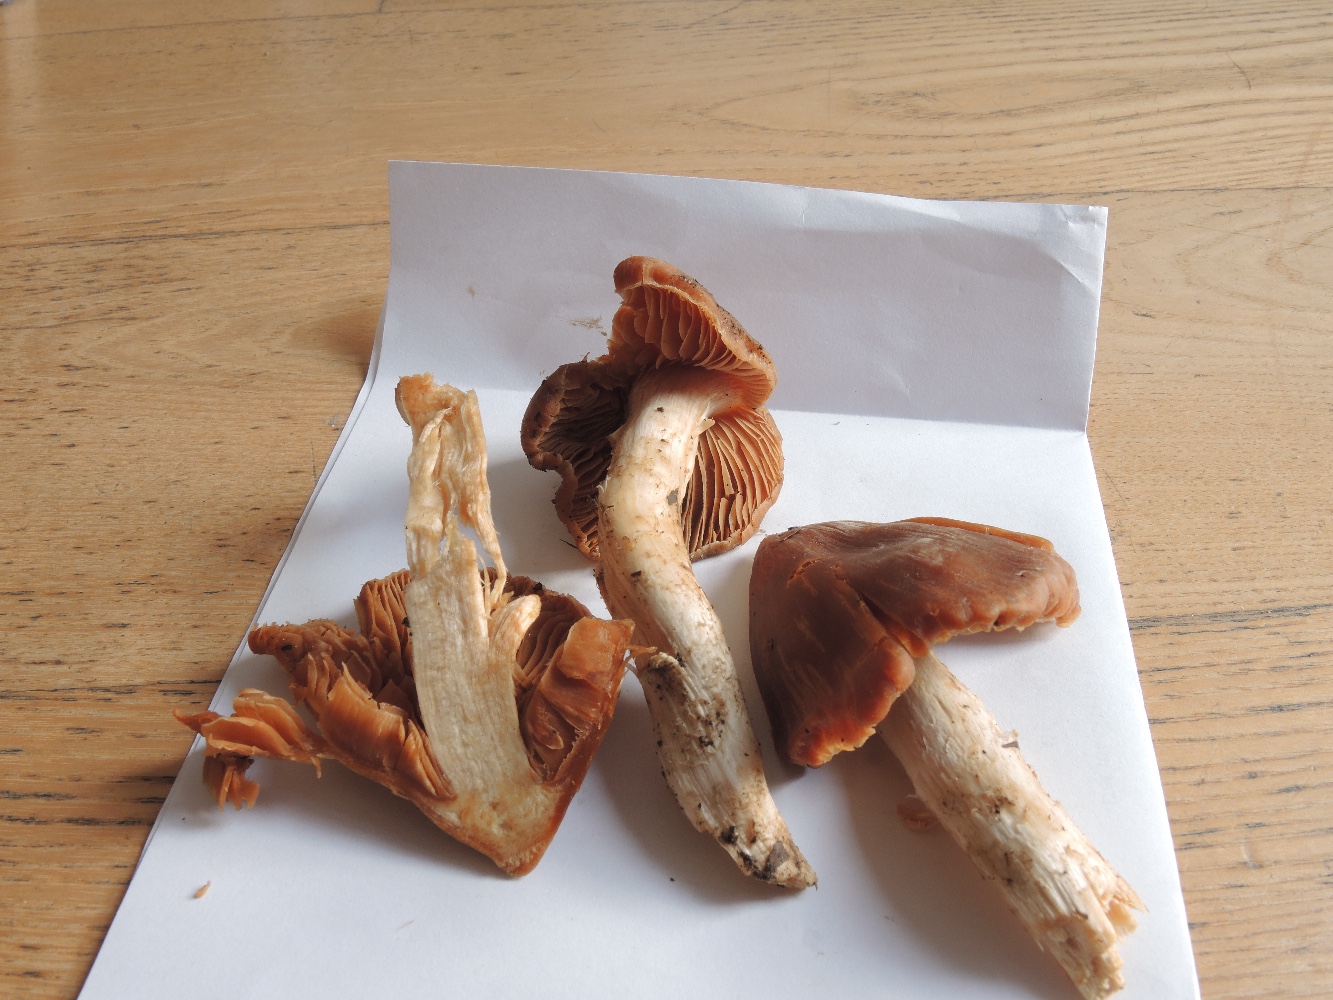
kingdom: Fungi
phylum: Basidiomycota
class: Agaricomycetes
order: Agaricales
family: Cortinariaceae
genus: Cortinarius
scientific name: Cortinarius
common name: jod-slørhat
